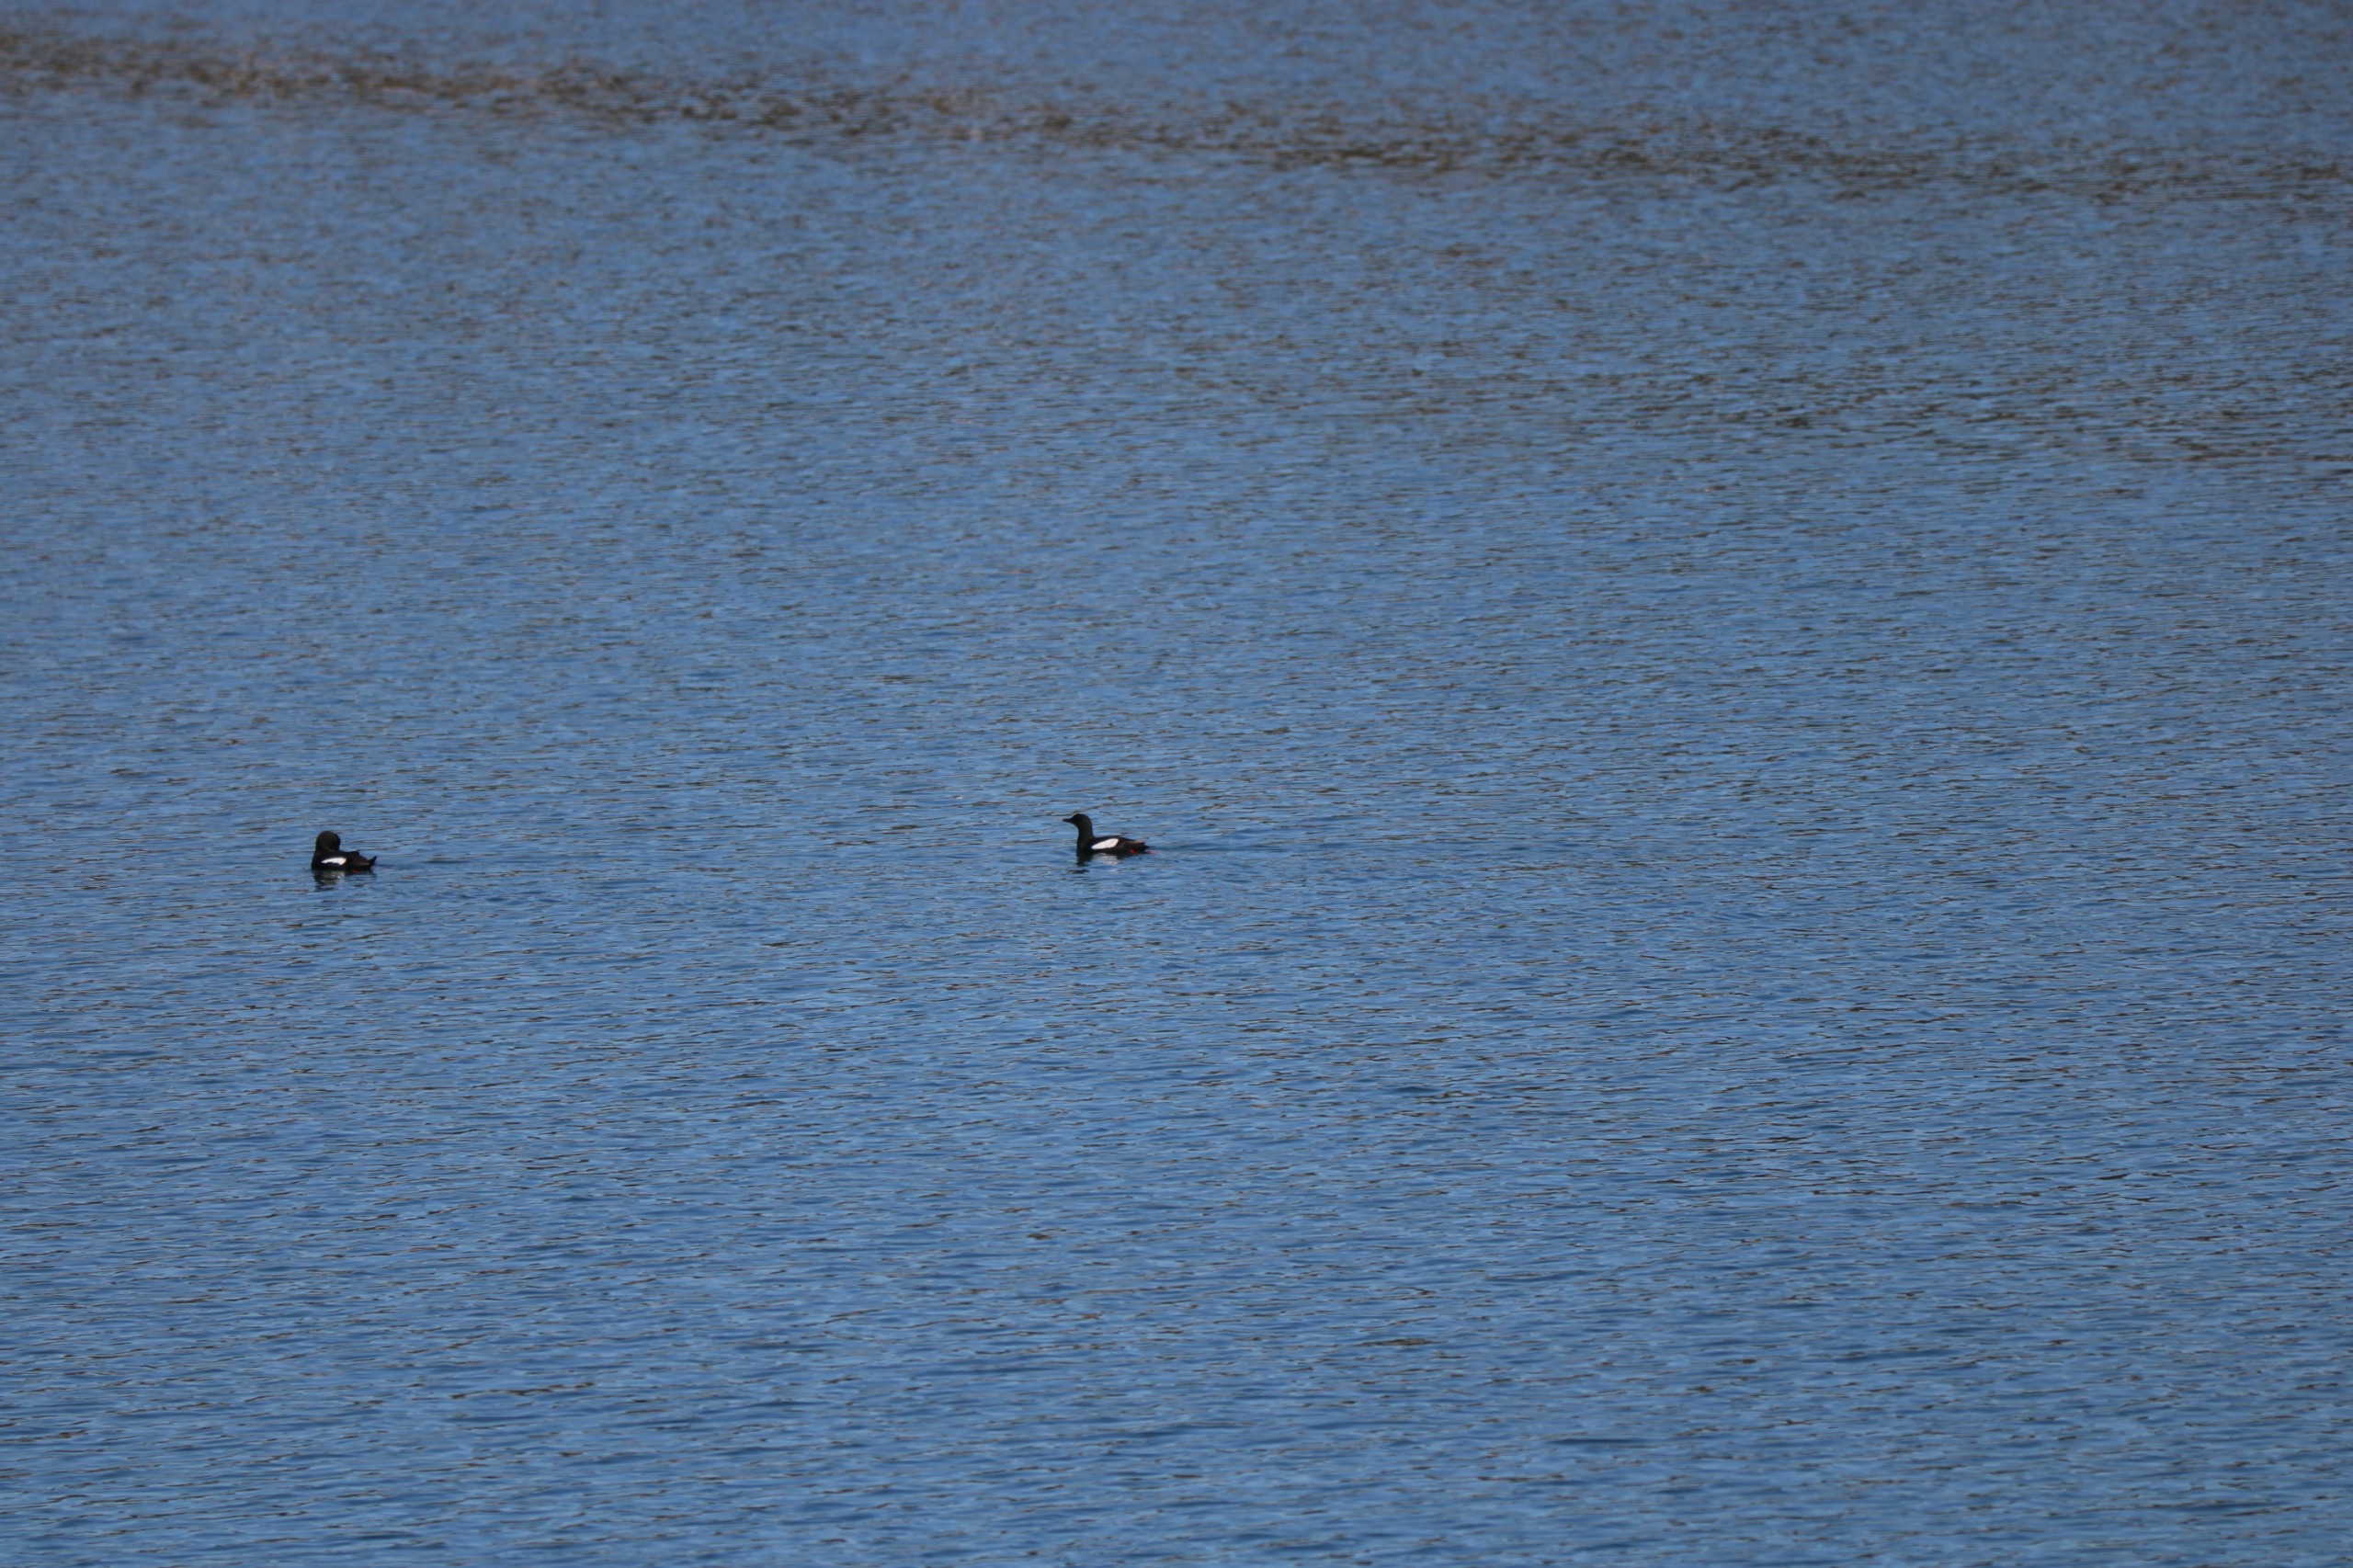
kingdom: Animalia
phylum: Chordata
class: Aves
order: Charadriiformes
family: Alcidae
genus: Cepphus
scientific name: Cepphus grylle
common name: Tejst
